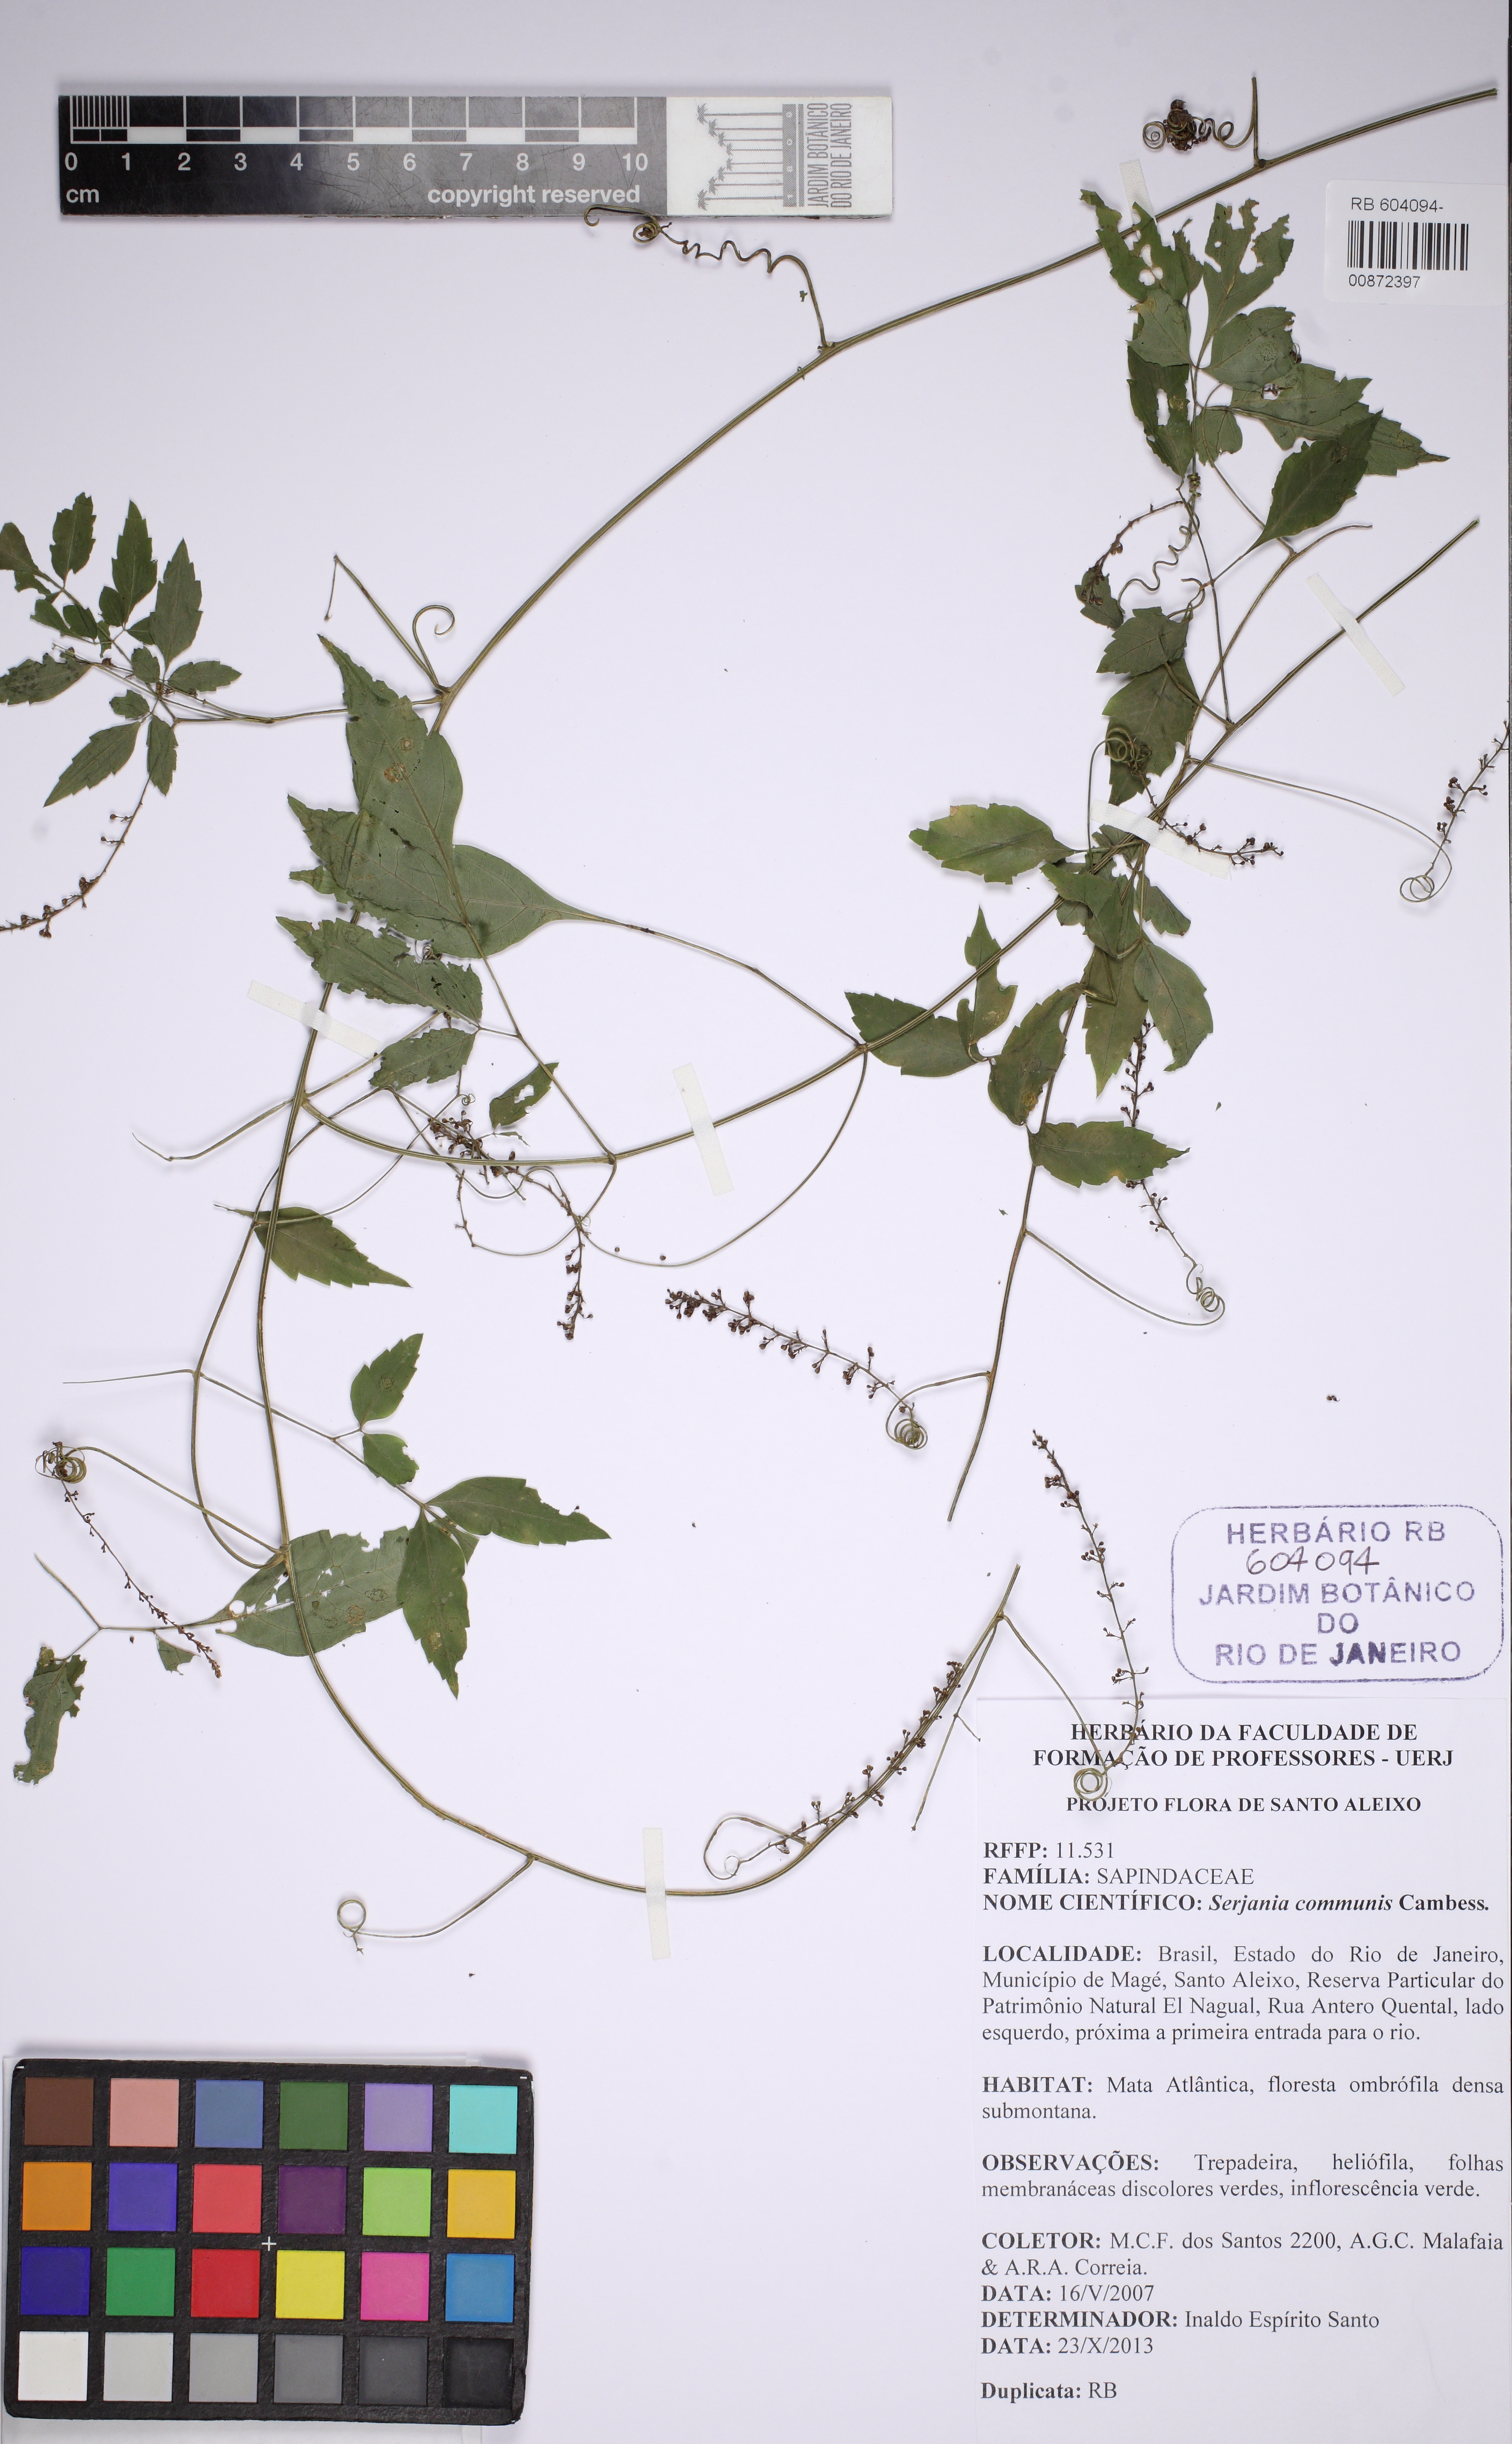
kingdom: Plantae
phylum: Tracheophyta
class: Magnoliopsida
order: Sapindales
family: Sapindaceae
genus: Serjania
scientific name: Serjania communis
